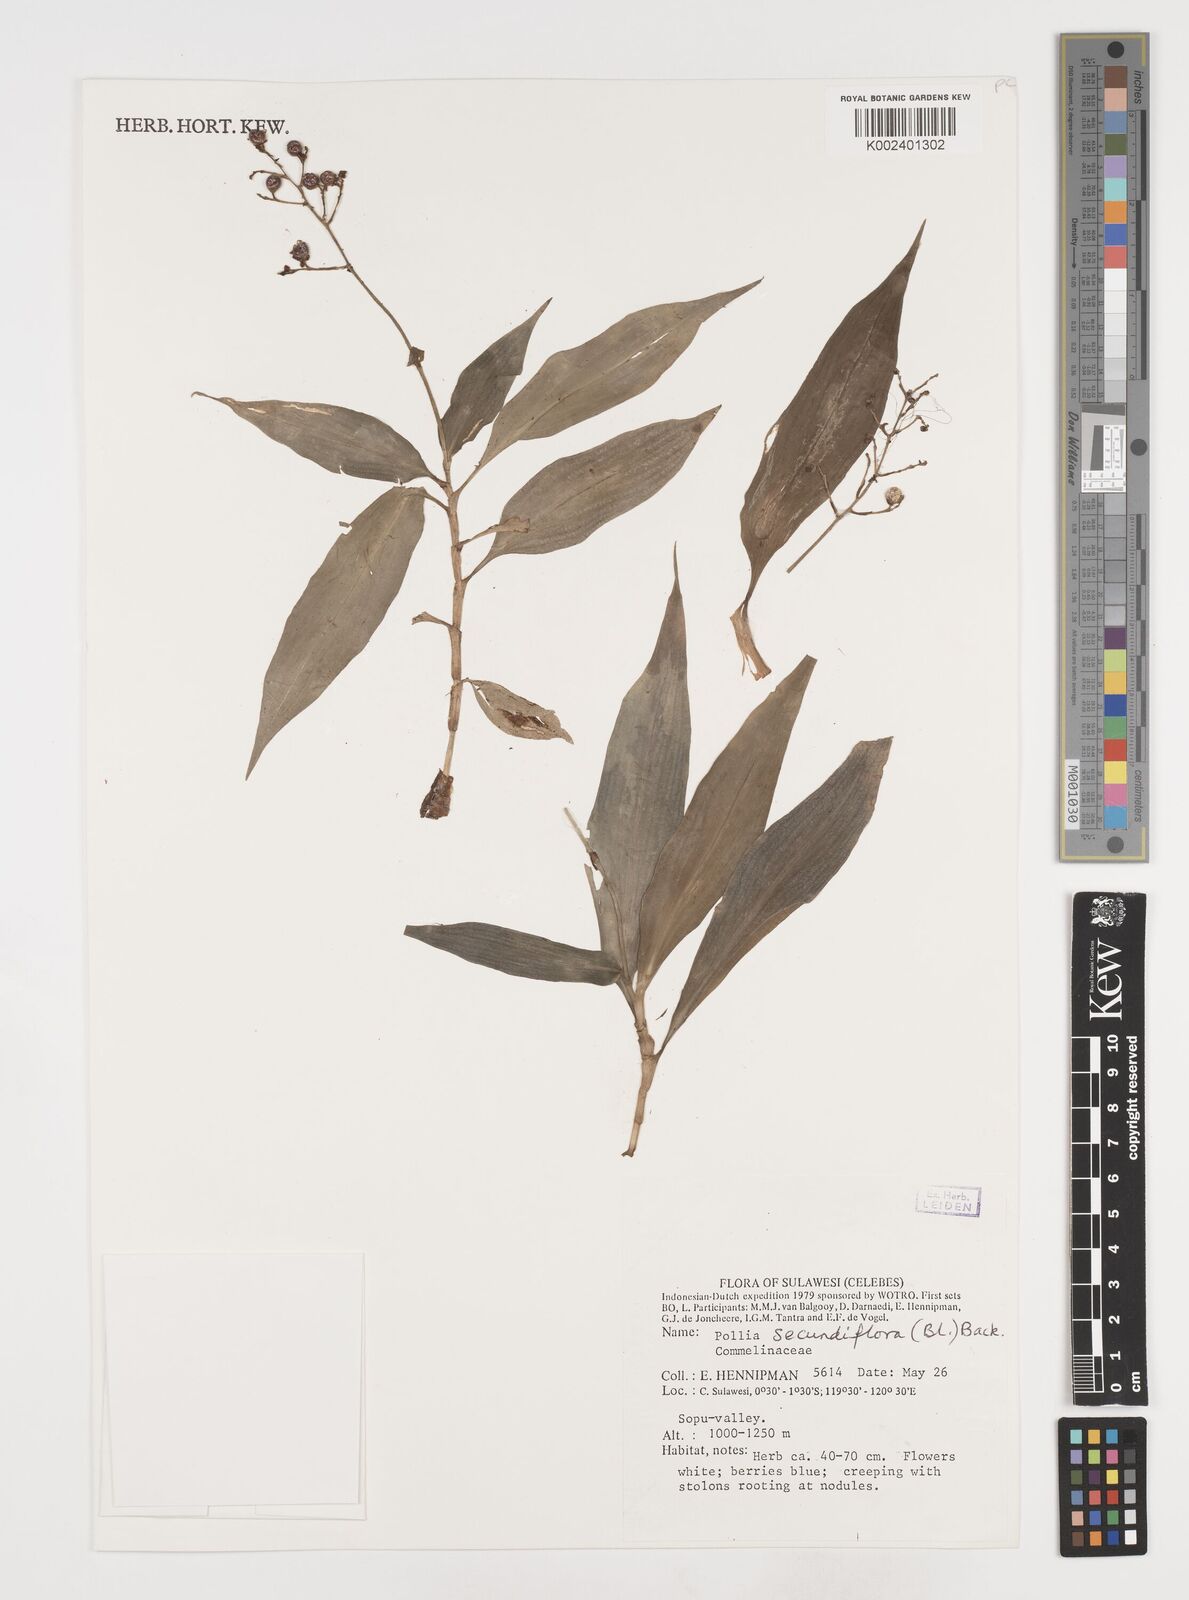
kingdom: Plantae
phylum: Tracheophyta
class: Liliopsida
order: Commelinales
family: Commelinaceae
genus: Pollia
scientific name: Pollia secundiflora
